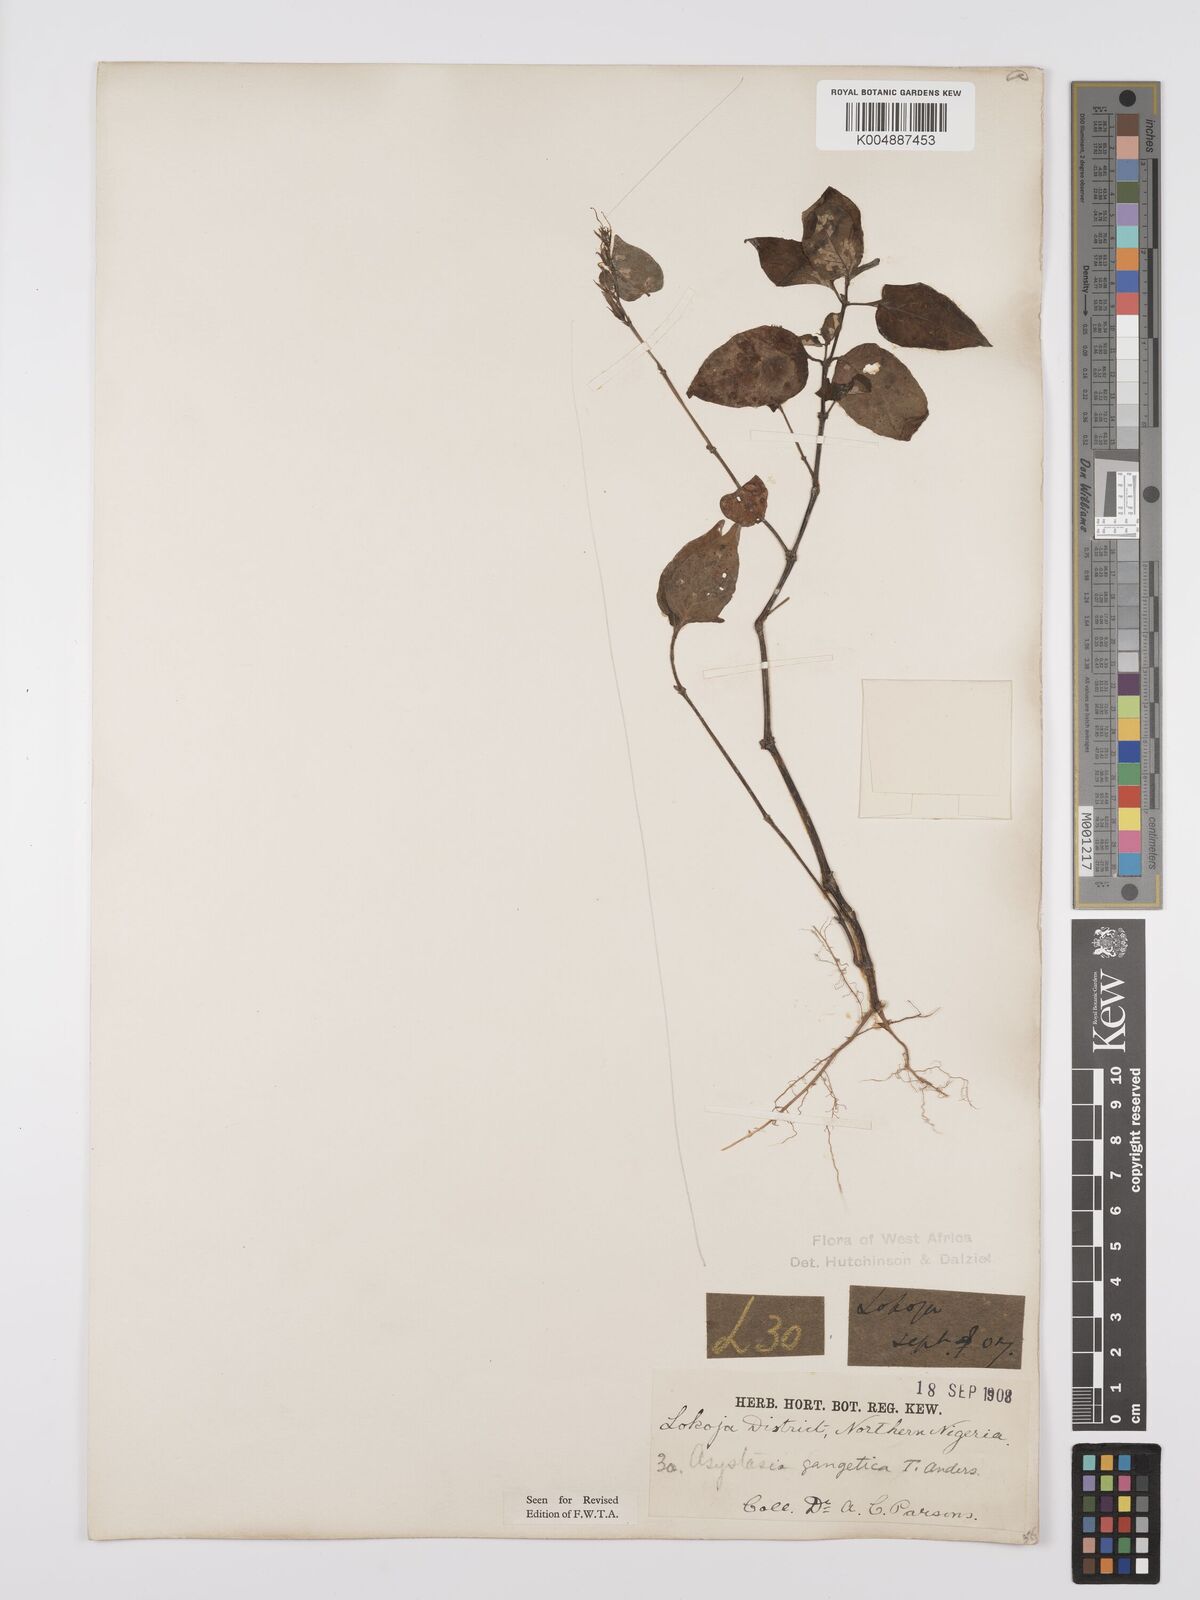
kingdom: Plantae
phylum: Tracheophyta
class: Magnoliopsida
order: Lamiales
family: Acanthaceae
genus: Asystasia
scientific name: Asystasia gangetica
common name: Chinese violet
